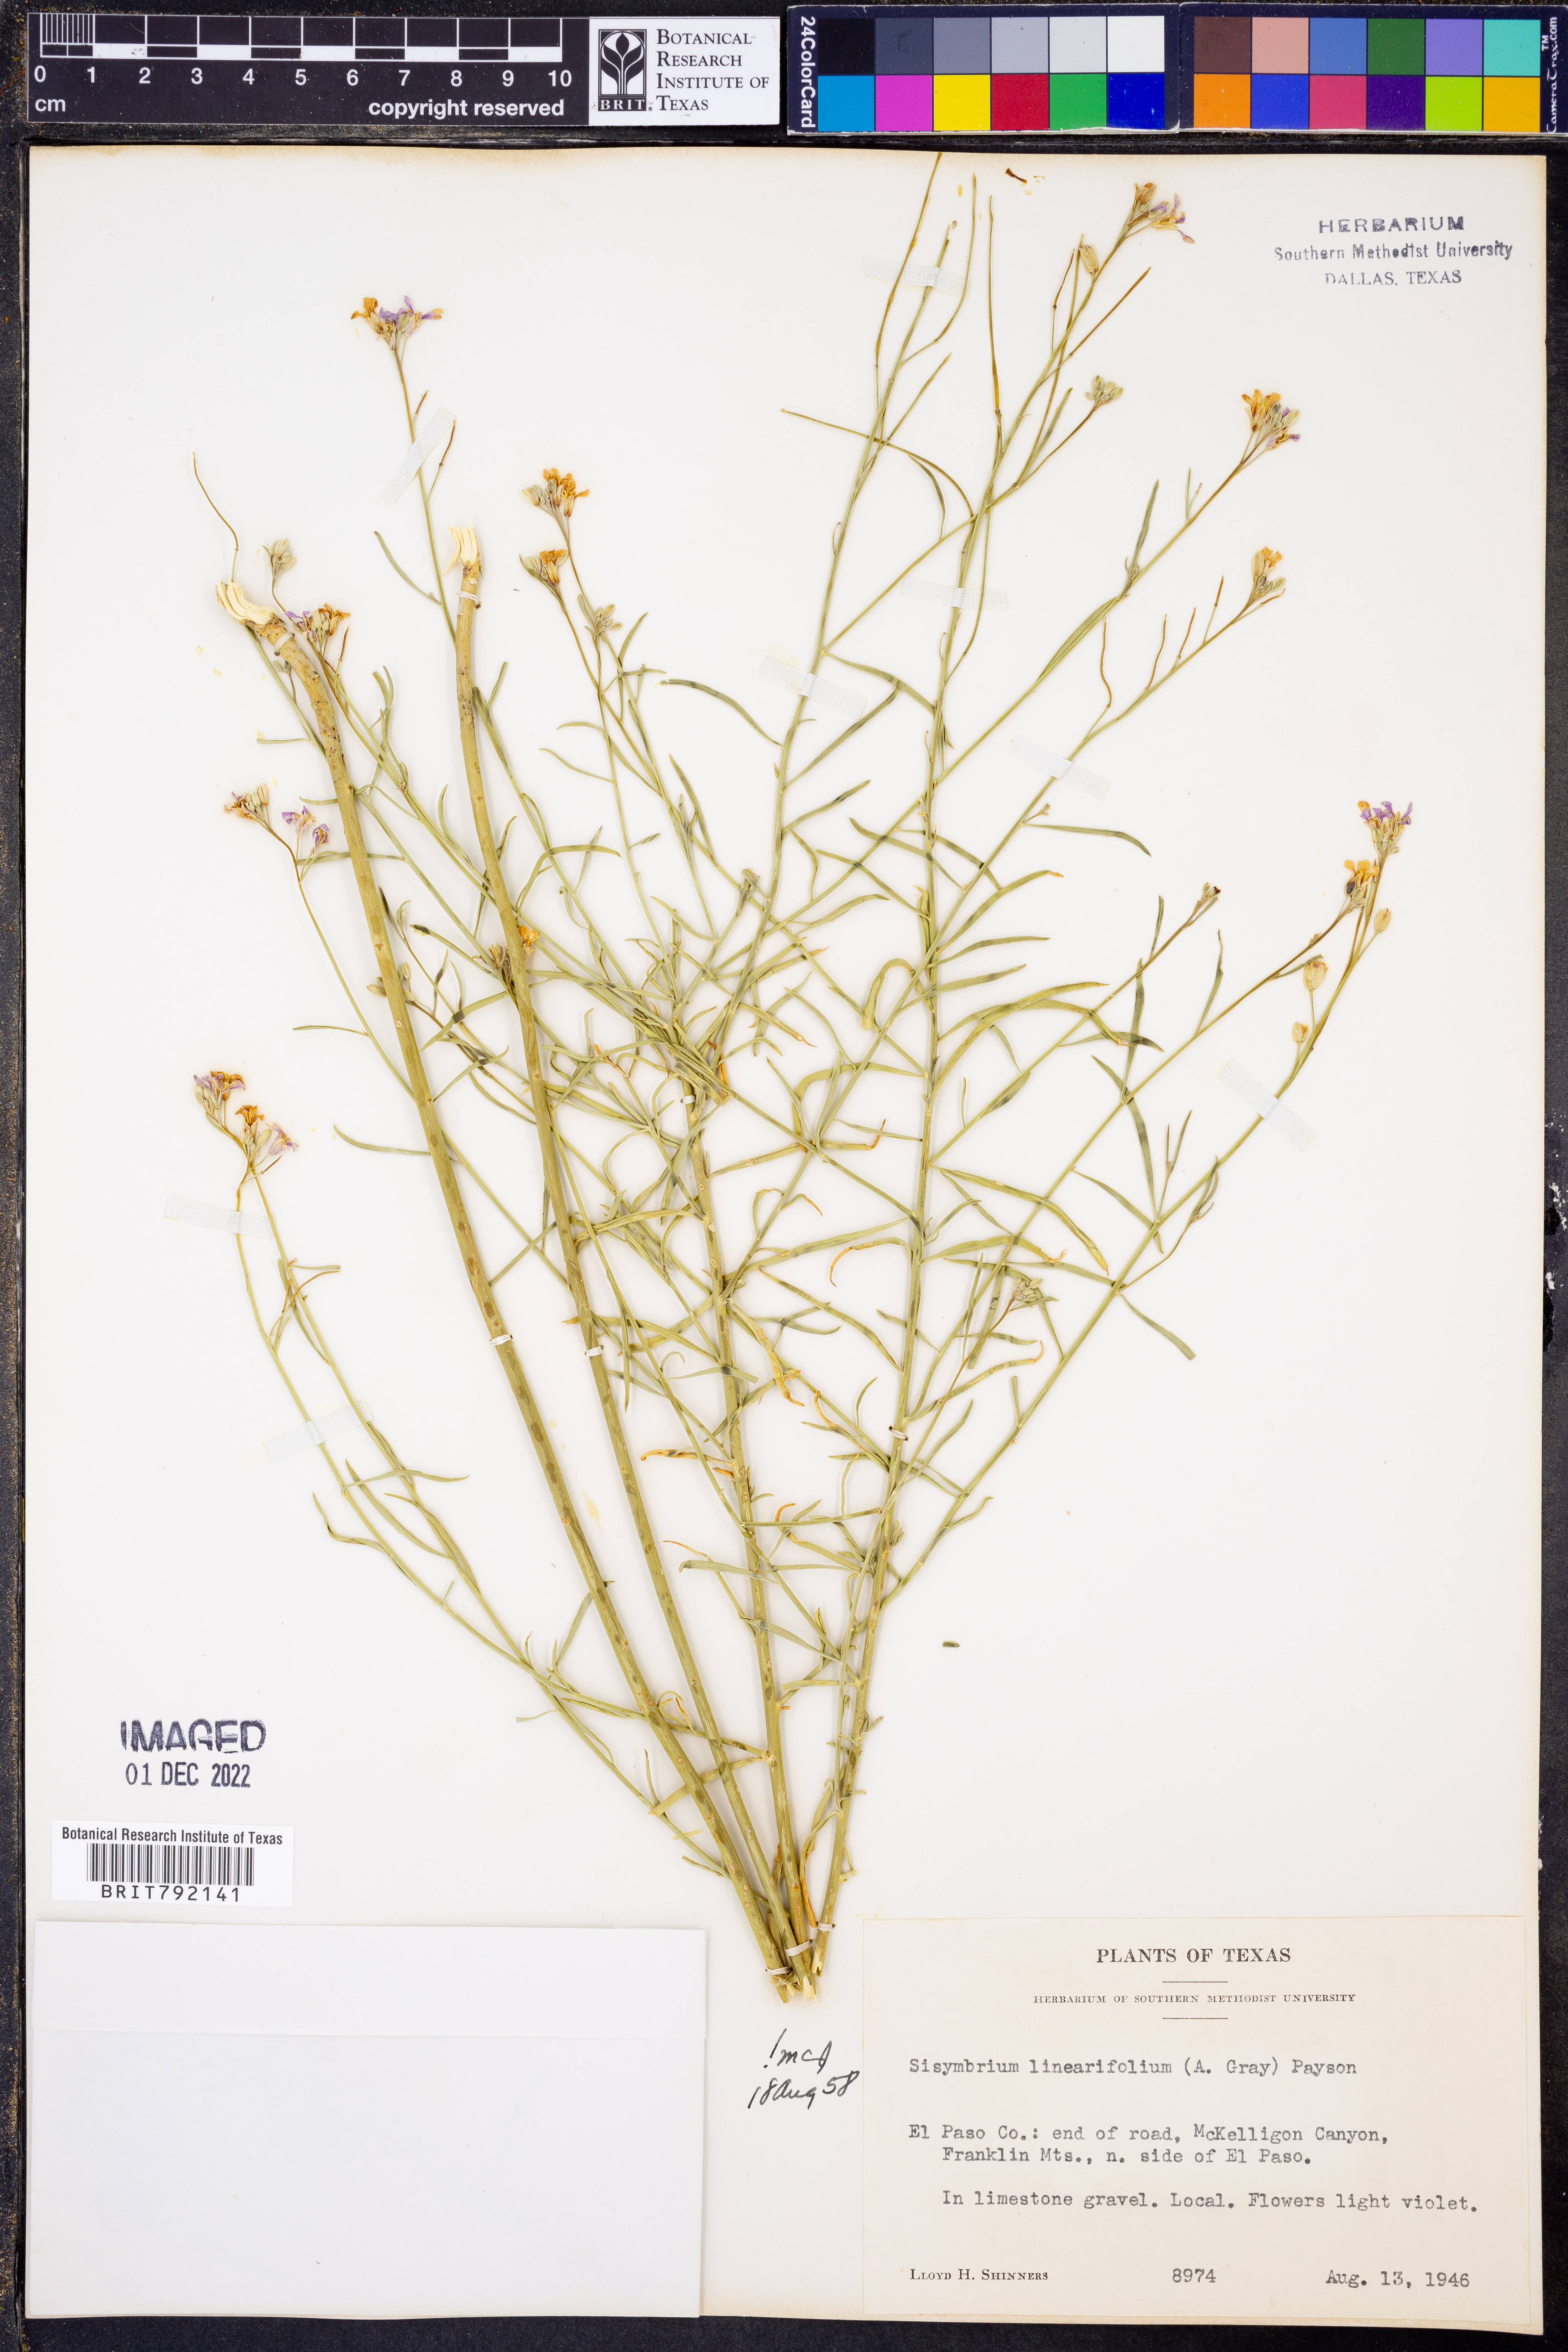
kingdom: Plantae
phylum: Tracheophyta
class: Magnoliopsida
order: Brassicales
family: Brassicaceae
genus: Hesperidanthus
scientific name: Hesperidanthus linearifolius
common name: Slim-leaf plains mustard
